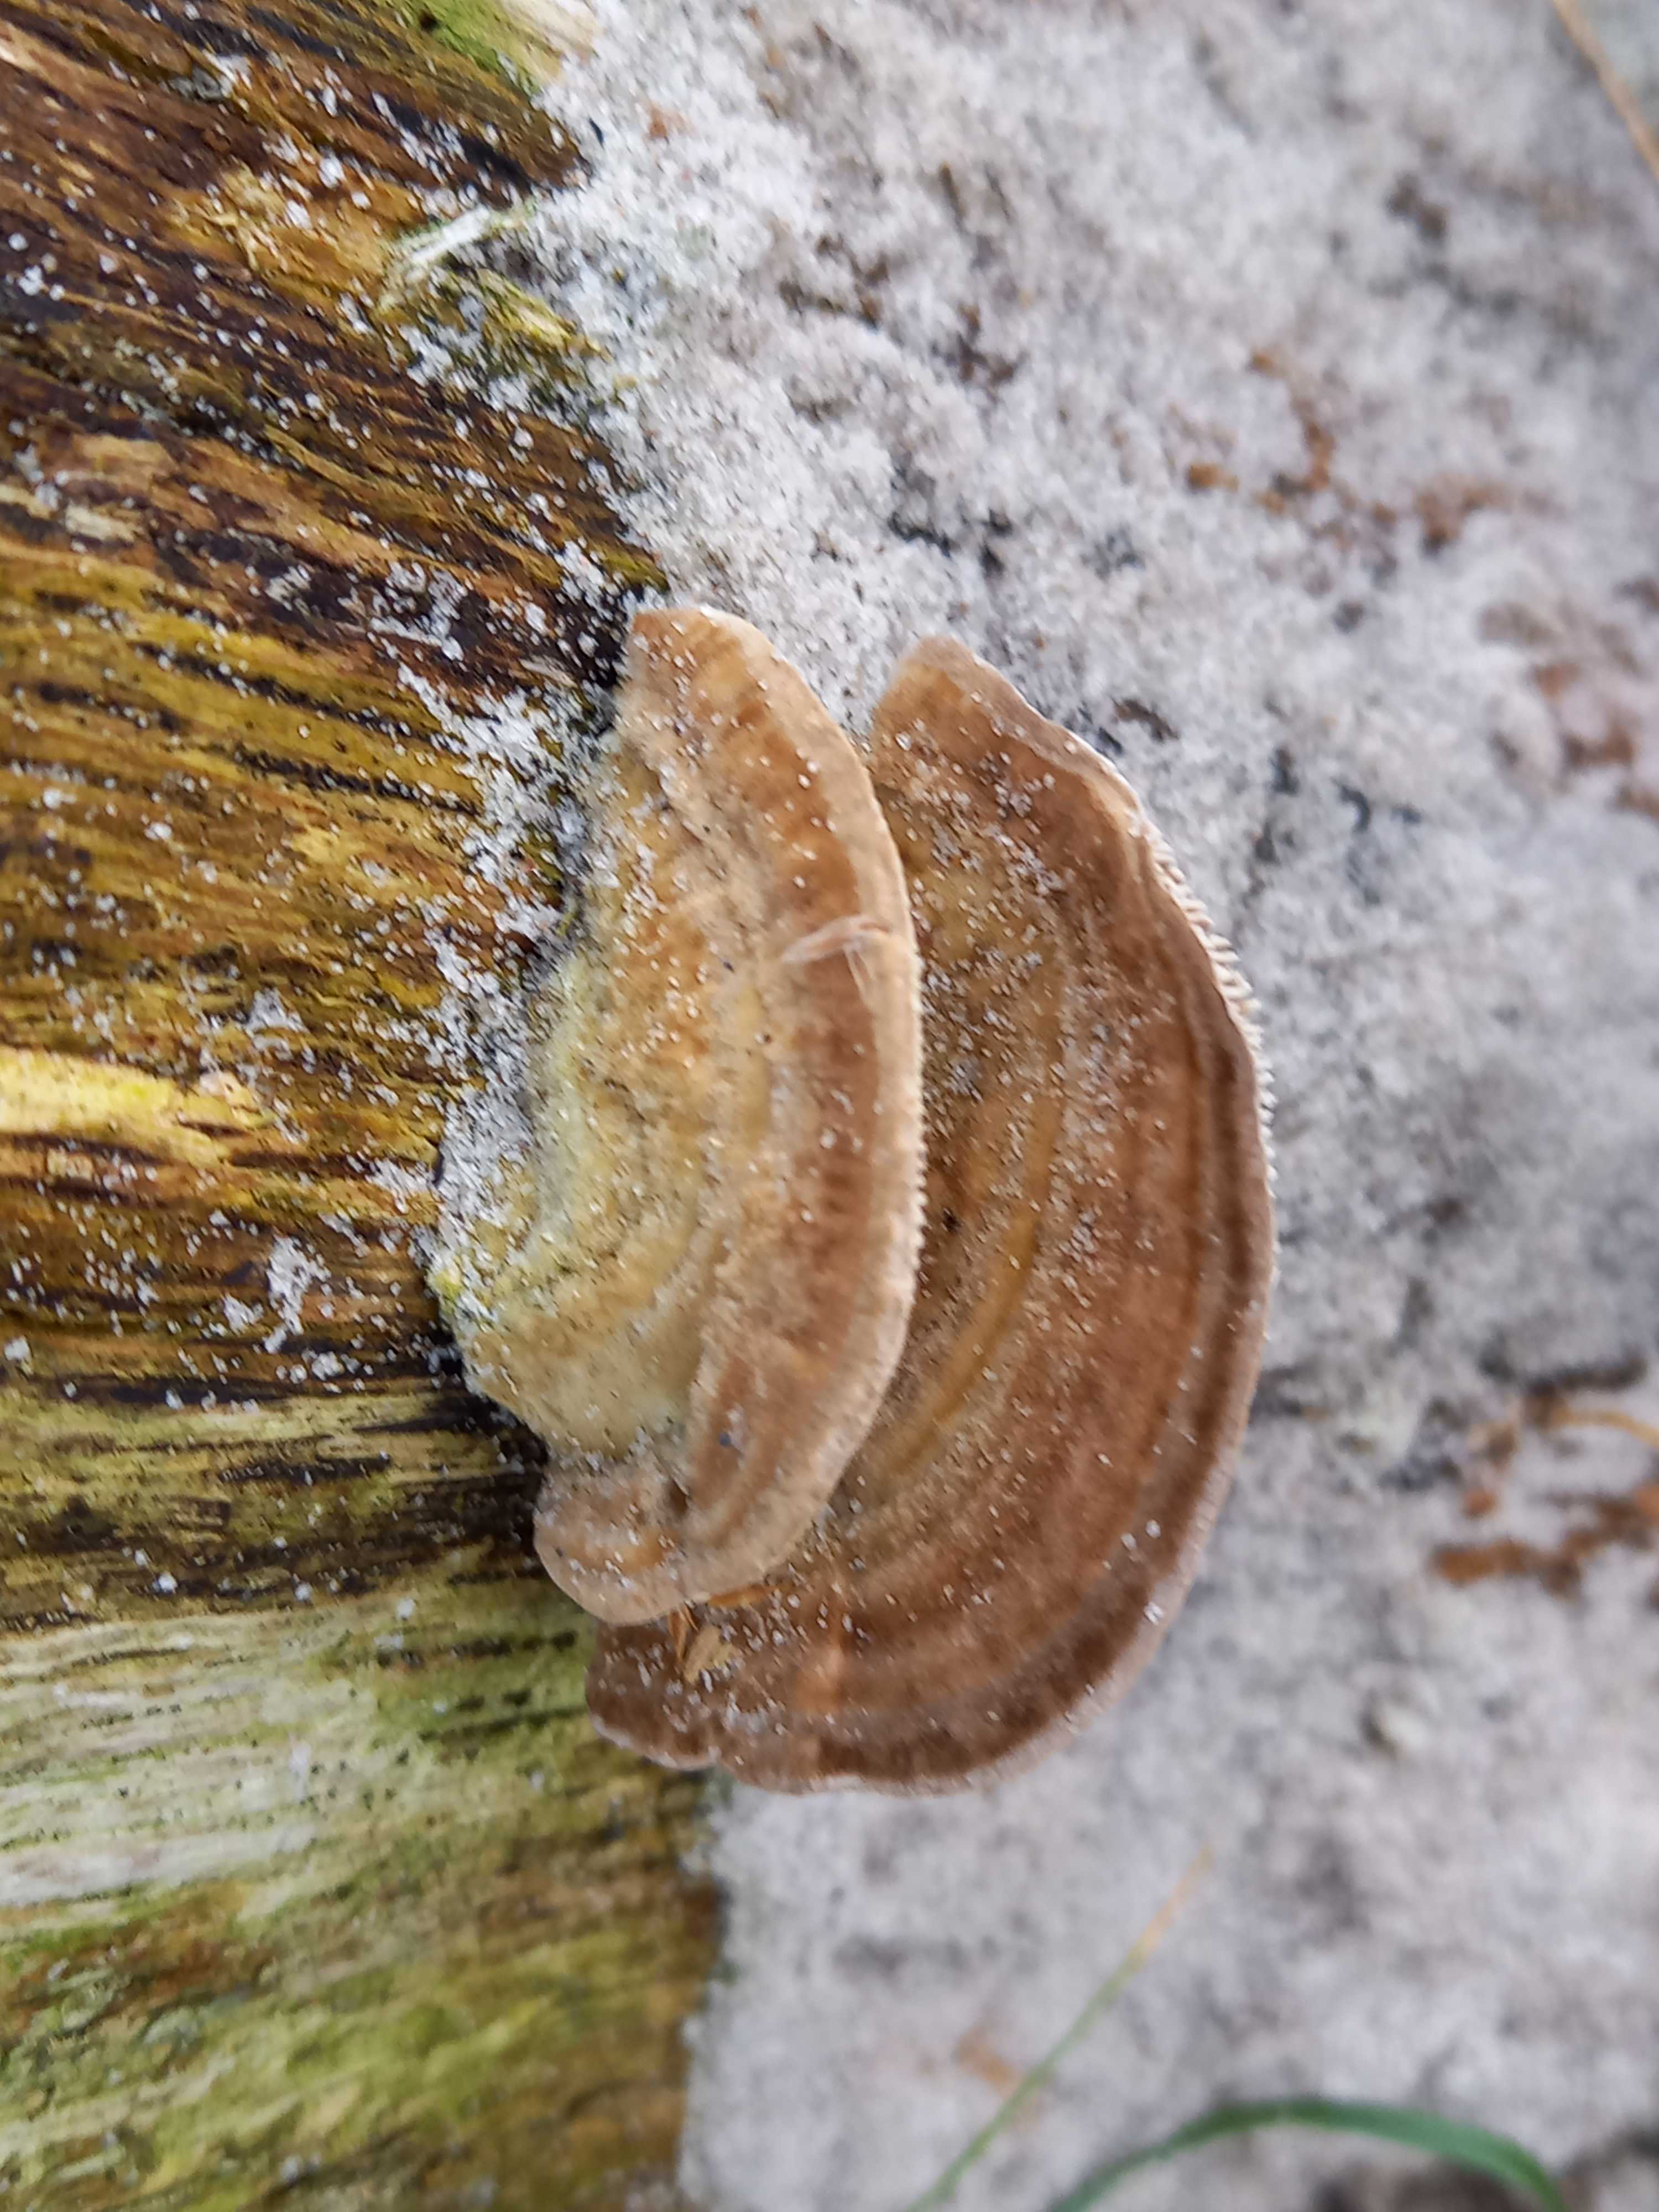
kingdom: Fungi
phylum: Basidiomycota
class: Agaricomycetes
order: Polyporales
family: Polyporaceae
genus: Lenzites
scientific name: Lenzites betulinus
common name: birke-læderporesvamp
